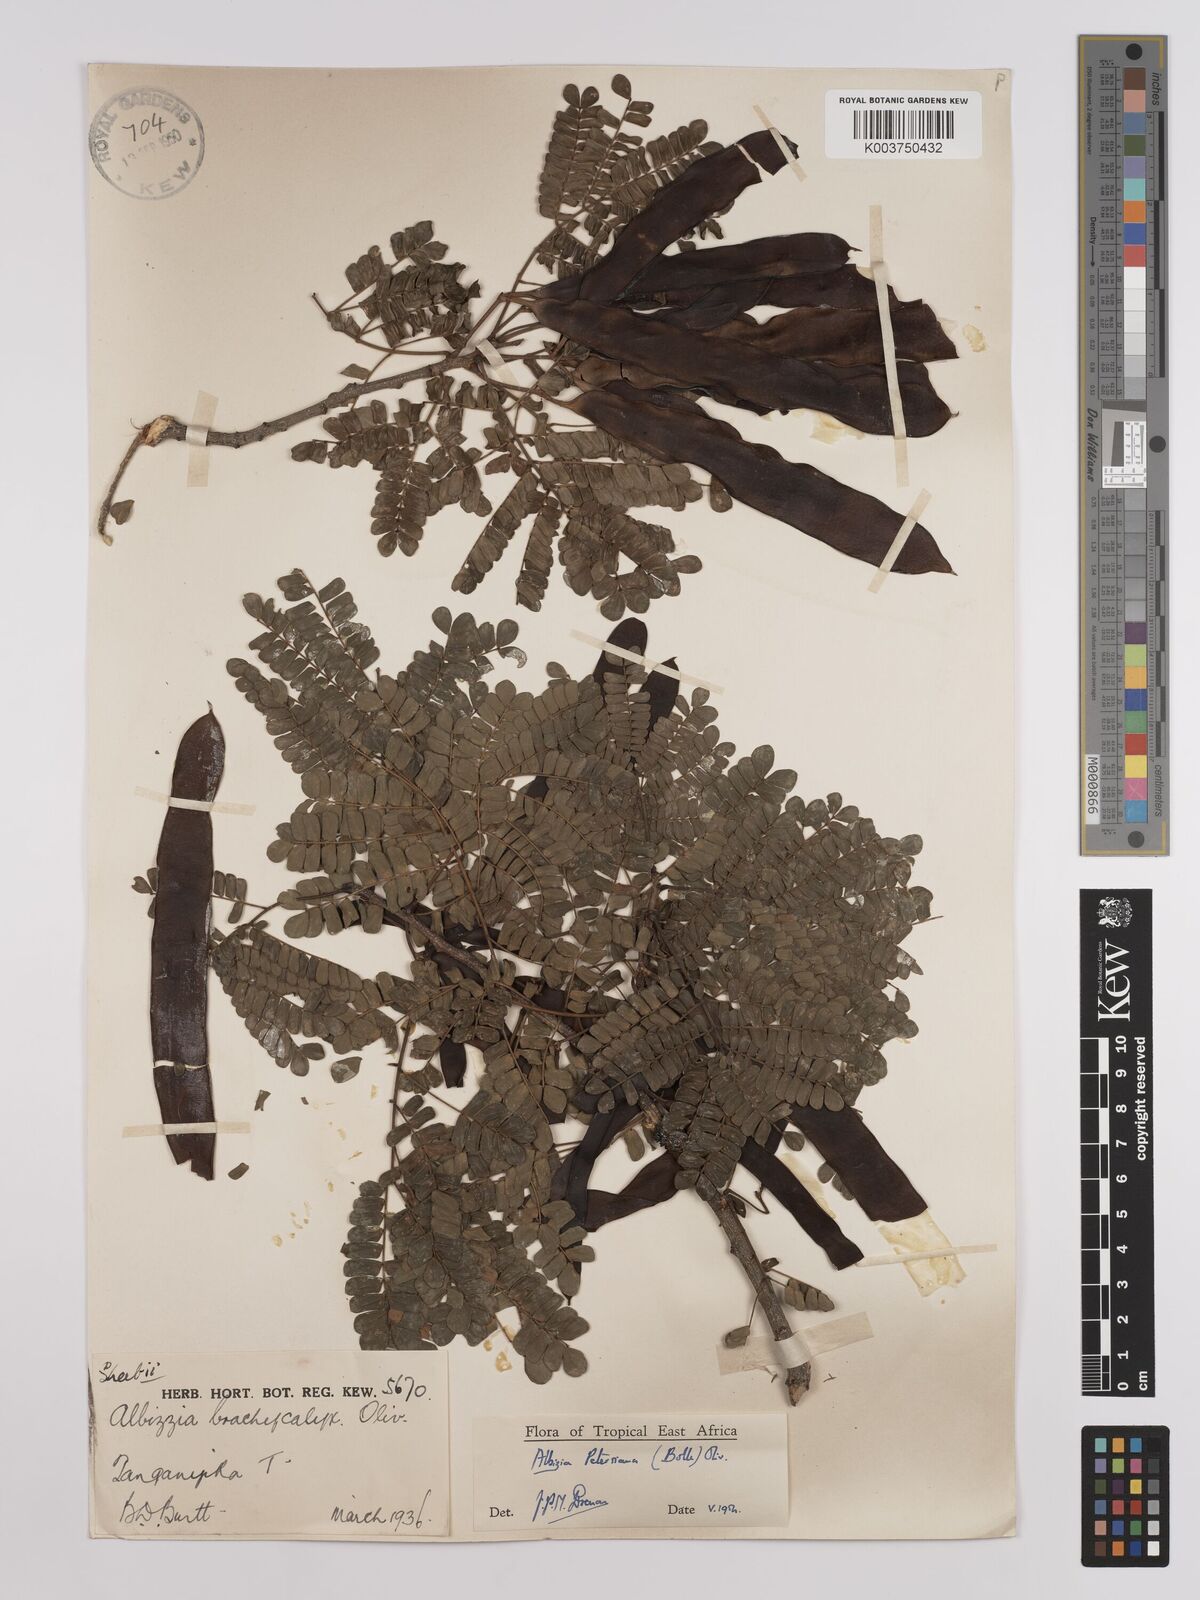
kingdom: Plantae
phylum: Tracheophyta
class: Magnoliopsida
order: Fabales
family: Fabaceae
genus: Albizia
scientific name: Albizia petersiana
